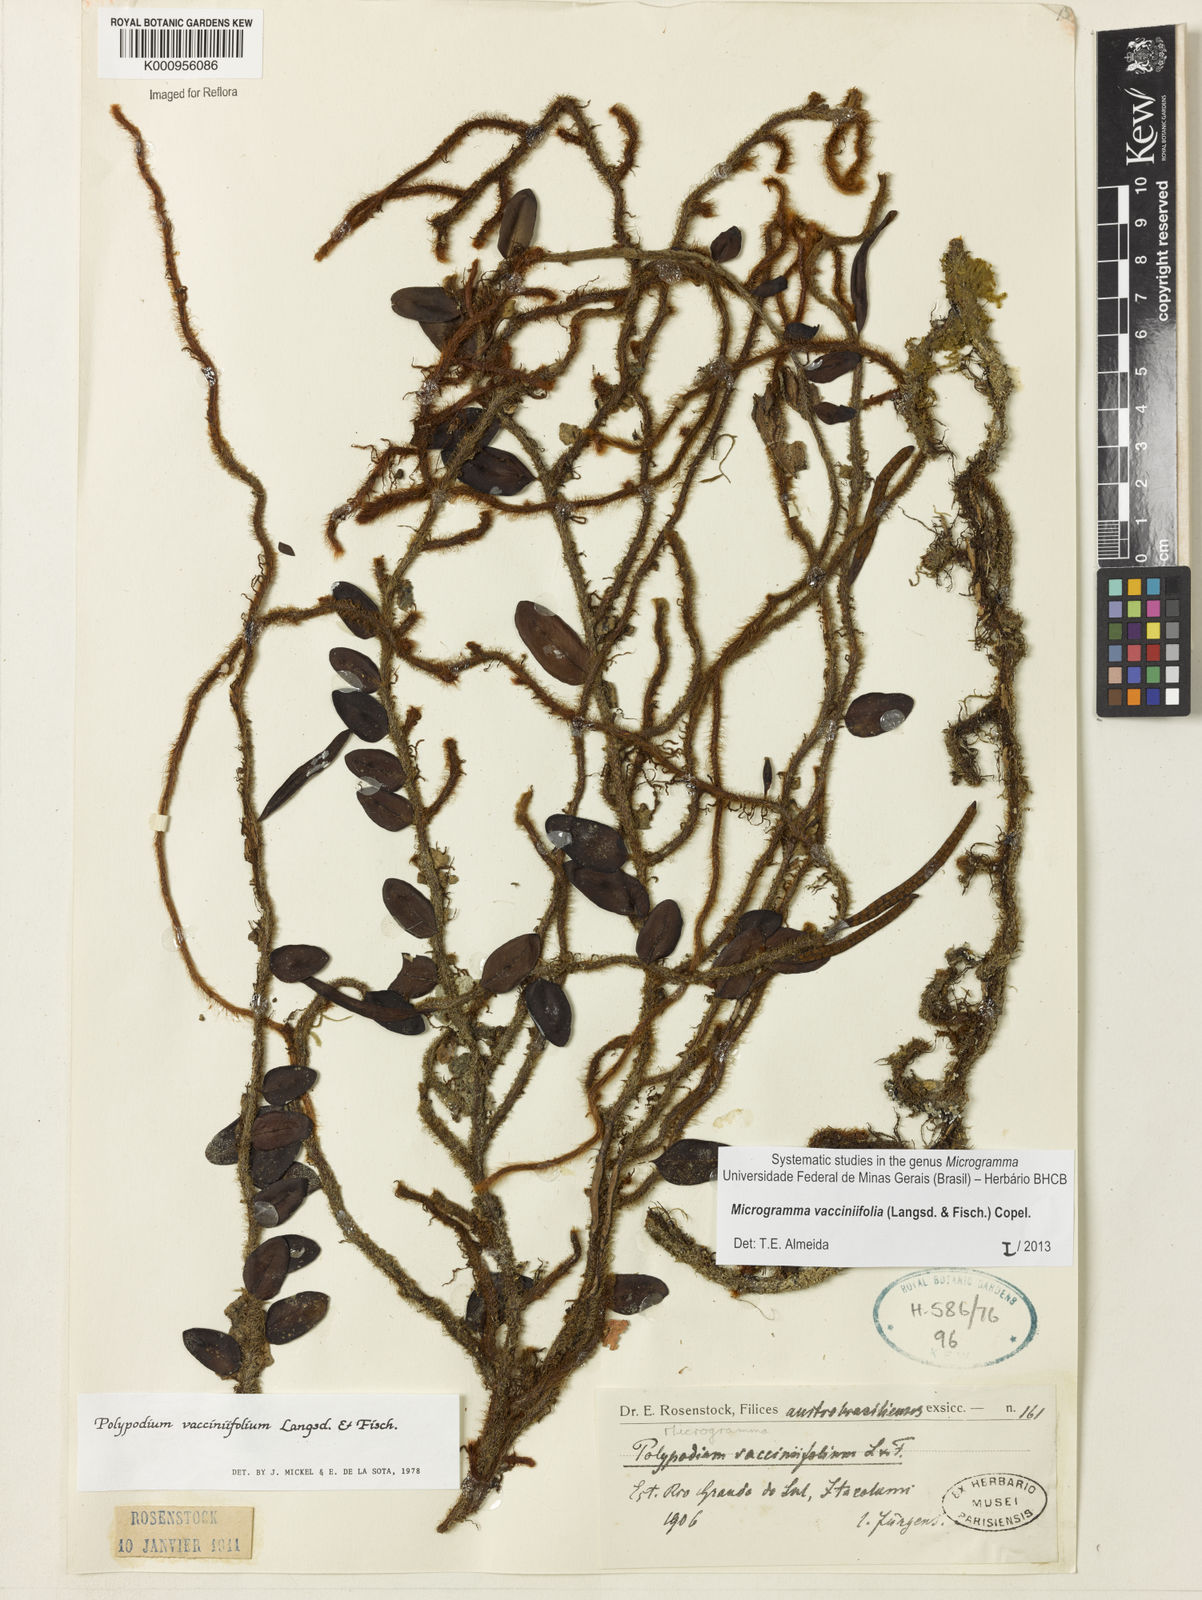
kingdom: Plantae
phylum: Tracheophyta
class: Polypodiopsida
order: Polypodiales
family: Polypodiaceae
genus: Phlebodium
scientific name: Phlebodium
